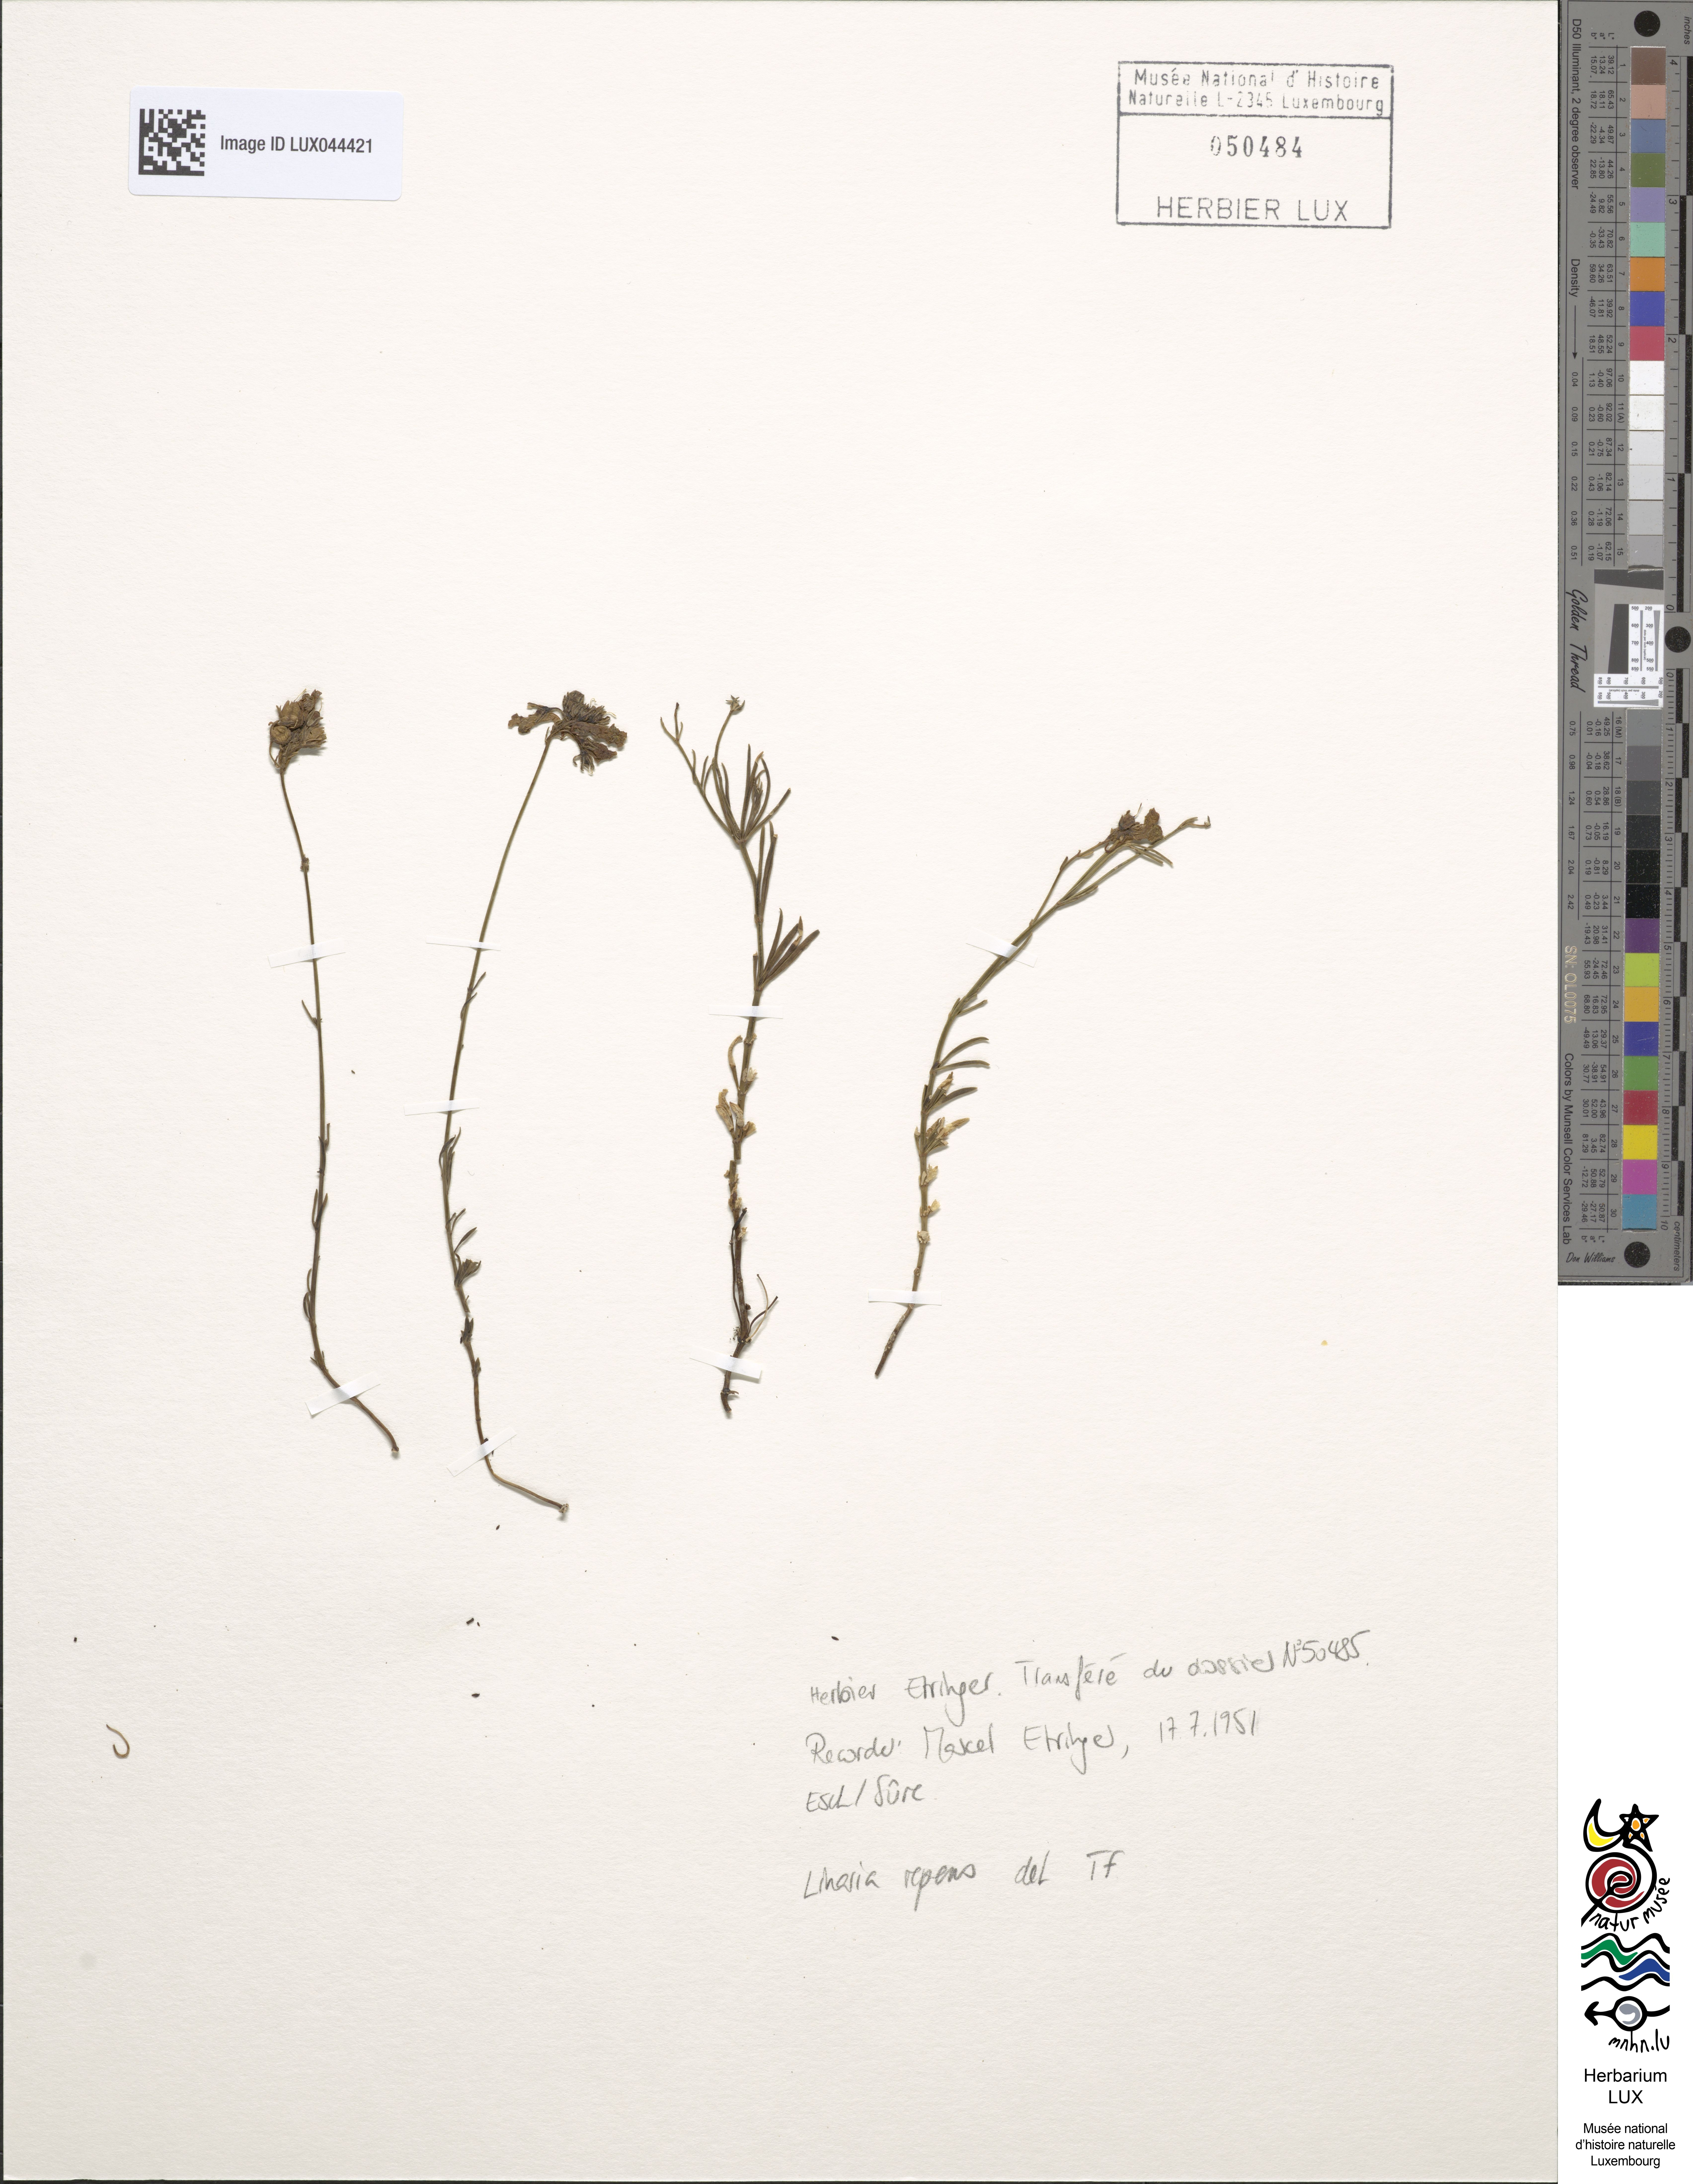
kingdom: Plantae
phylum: Tracheophyta
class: Magnoliopsida
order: Lamiales
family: Plantaginaceae
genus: Linaria
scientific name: Linaria repens
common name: Pale toadflax
